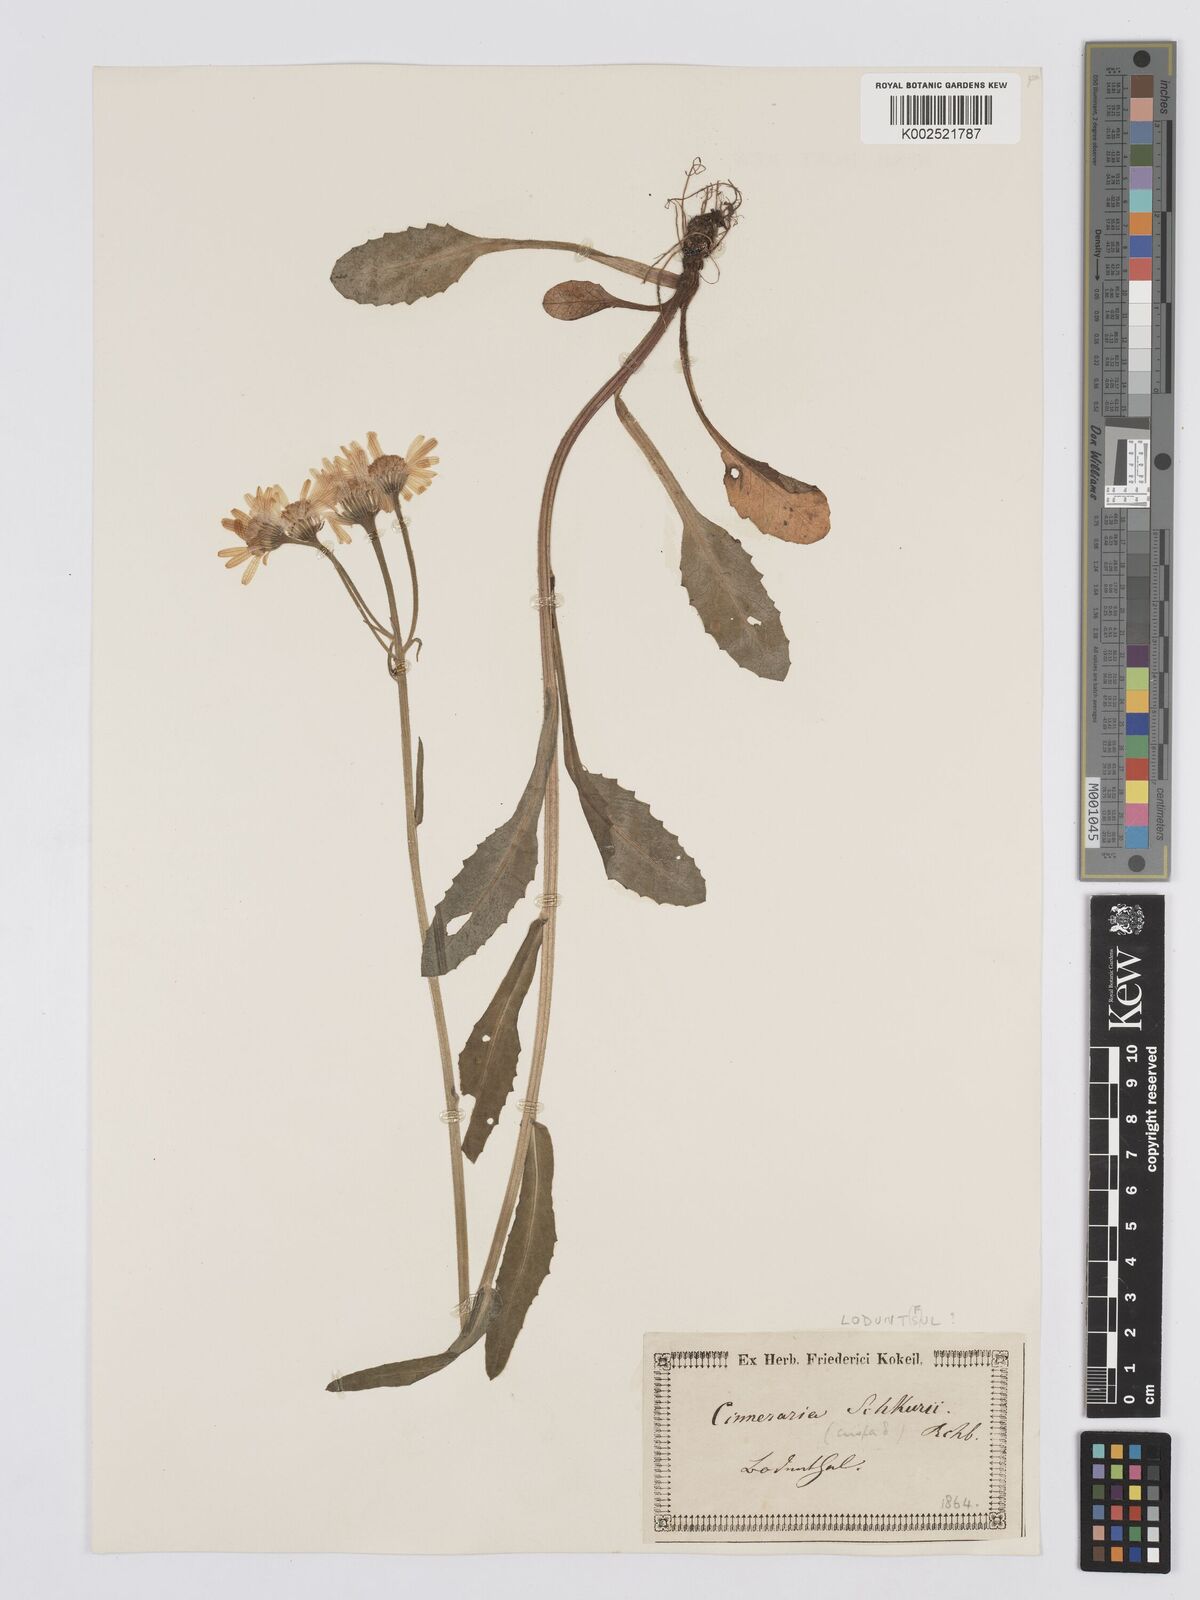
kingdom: Plantae
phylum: Tracheophyta
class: Magnoliopsida
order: Asterales
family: Asteraceae
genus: Tephroseris
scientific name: Tephroseris crispa
